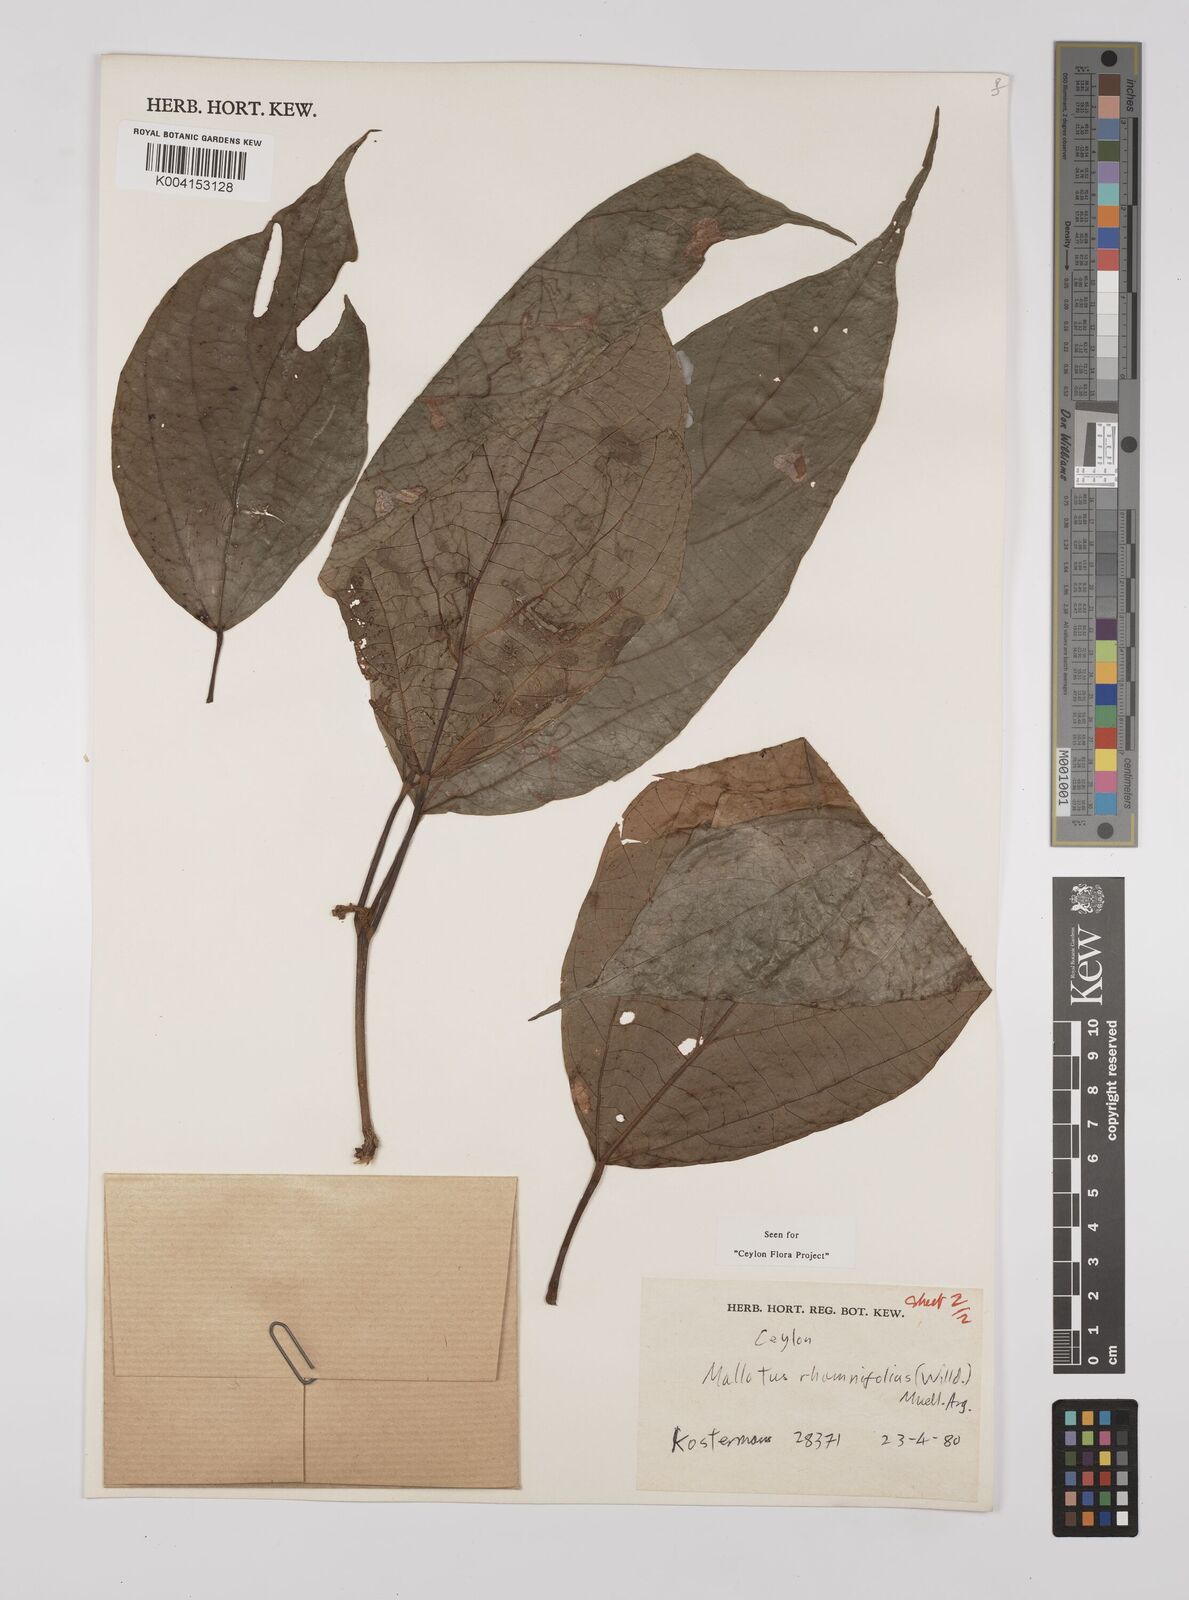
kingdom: Plantae
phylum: Tracheophyta
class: Magnoliopsida
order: Malpighiales
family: Euphorbiaceae
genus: Mallotus
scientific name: Mallotus rhamnifolius
